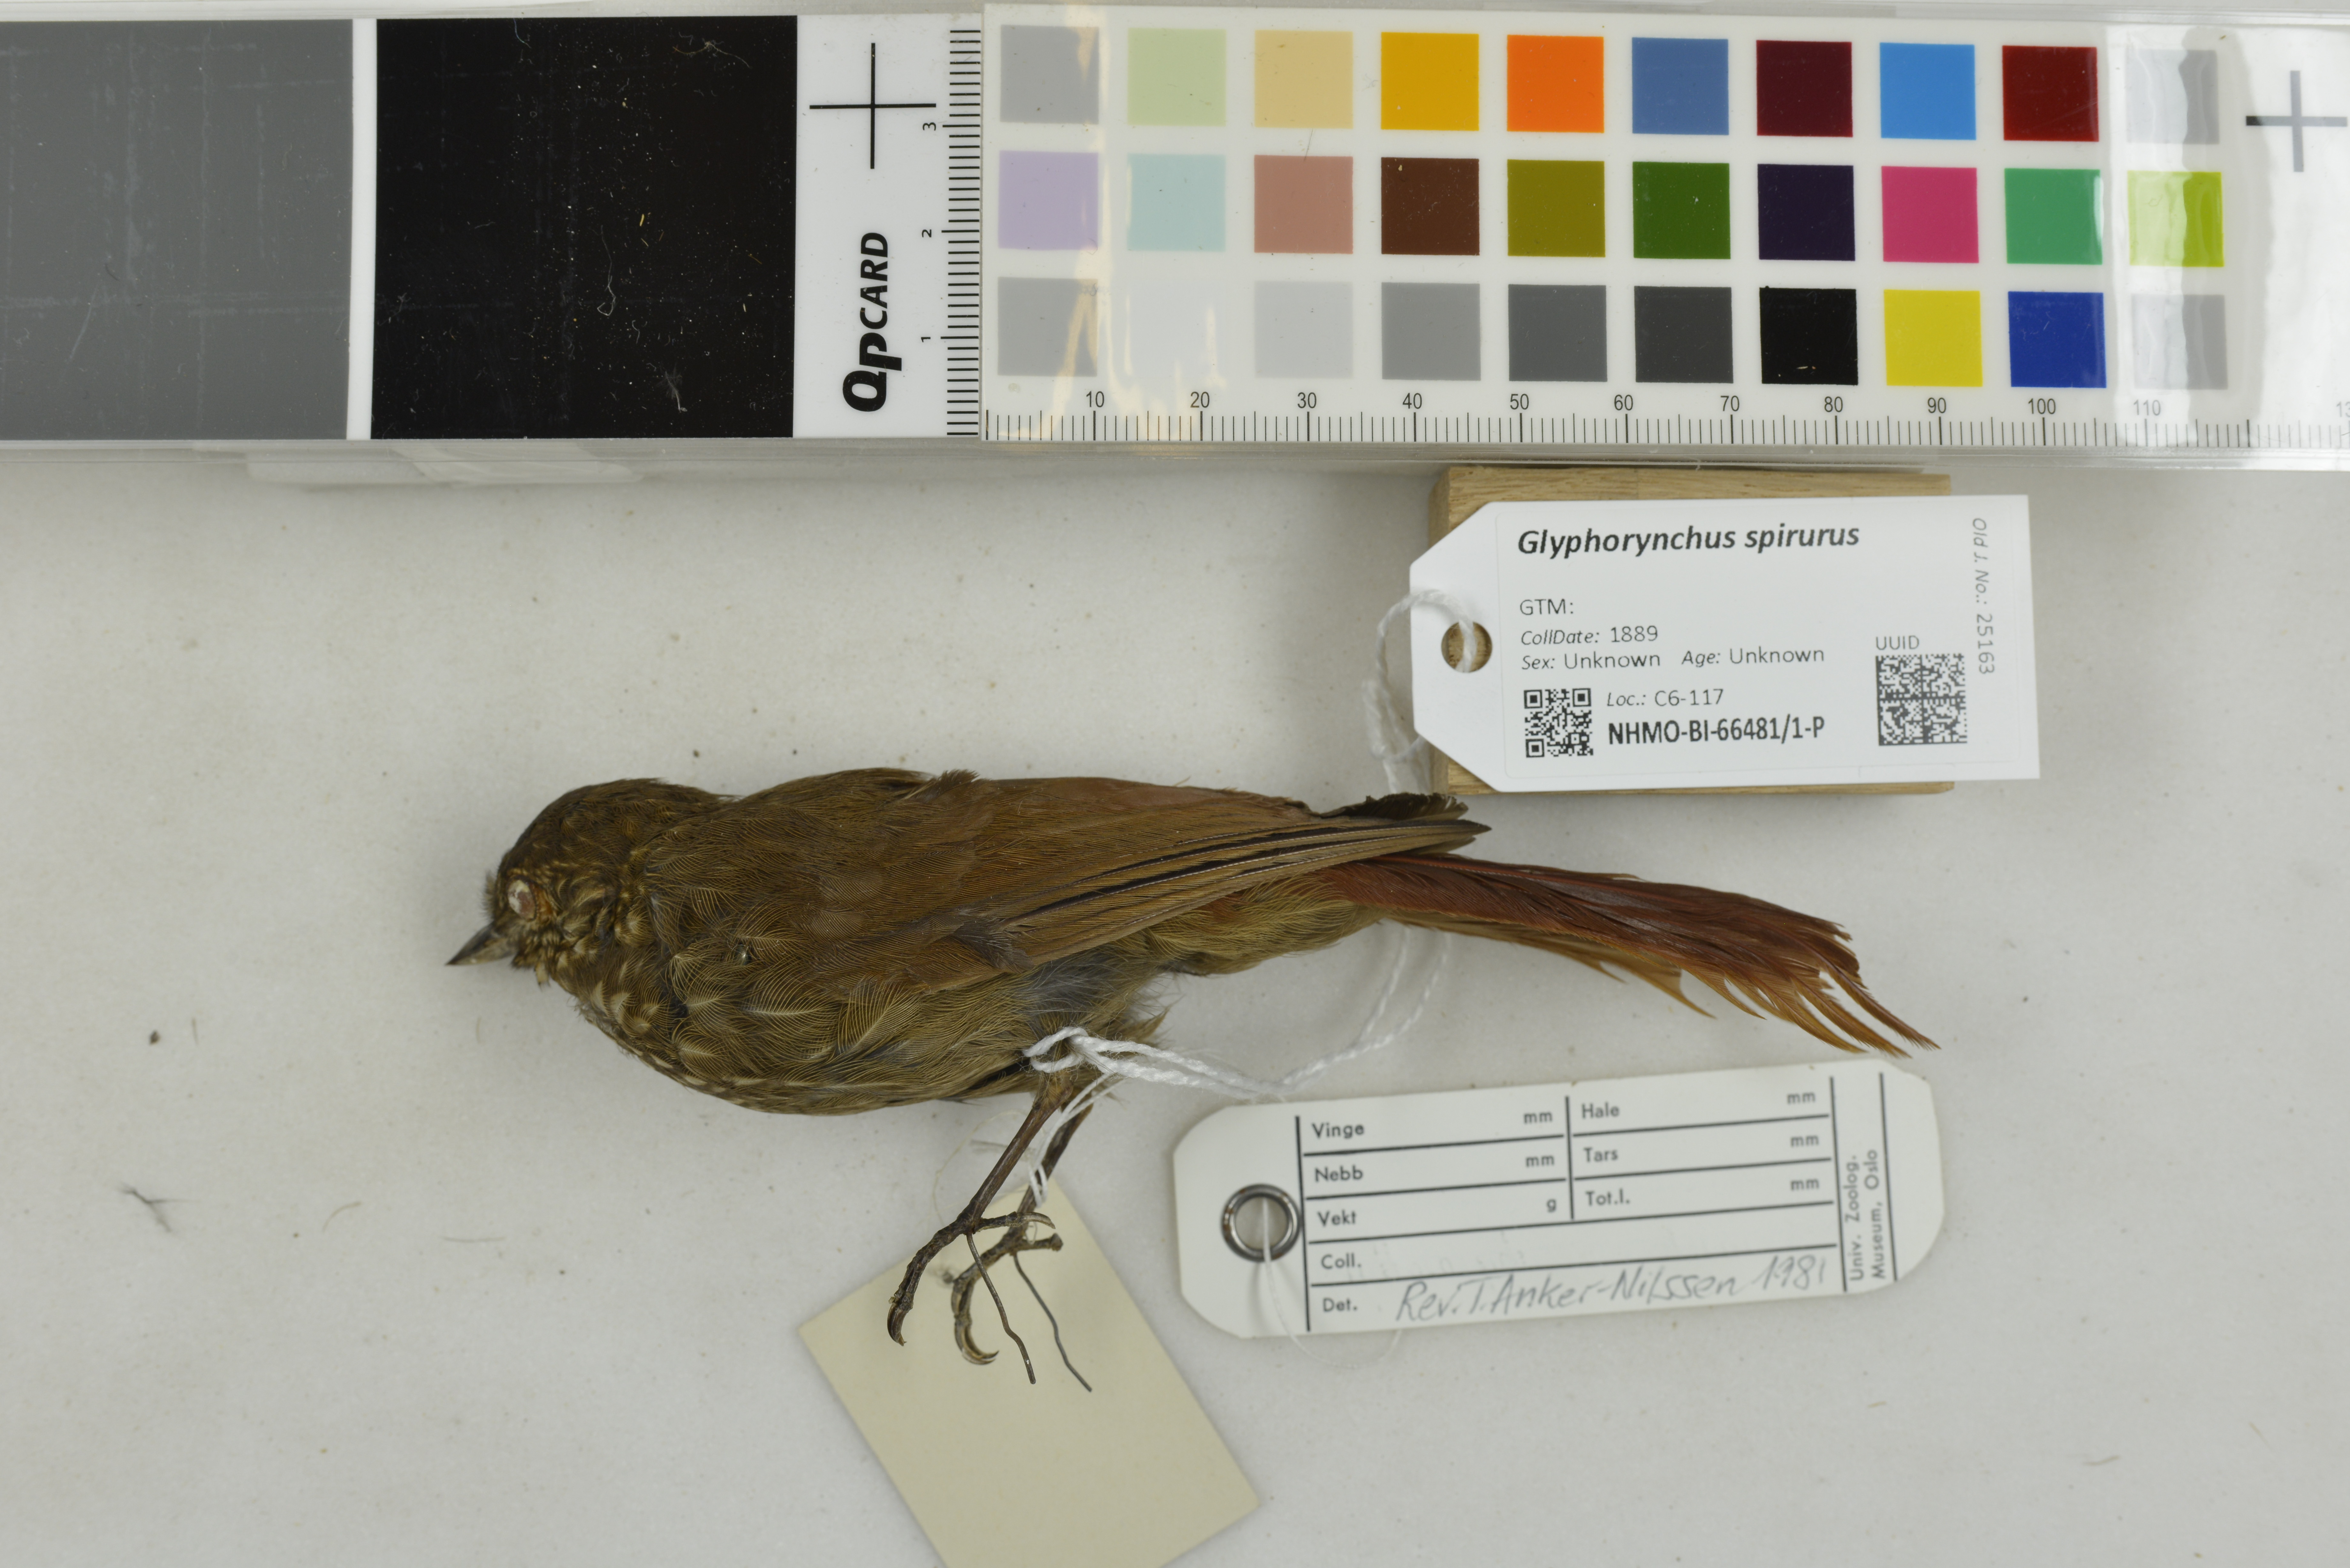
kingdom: Animalia
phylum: Chordata
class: Aves
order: Passeriformes
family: Furnariidae
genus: Glyphorynchus
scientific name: Glyphorynchus spirurus
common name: Wedge-billed woodcreeper
